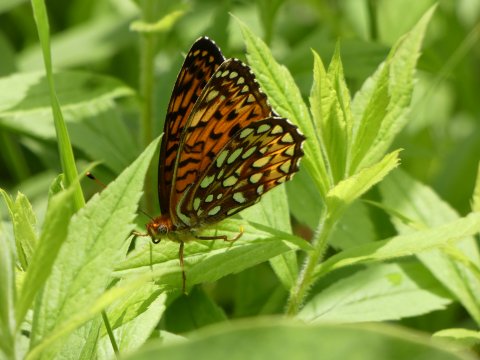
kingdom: Animalia
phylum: Arthropoda
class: Insecta
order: Lepidoptera
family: Nymphalidae
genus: Speyeria
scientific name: Speyeria atlantis
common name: Atlantis Fritillary
